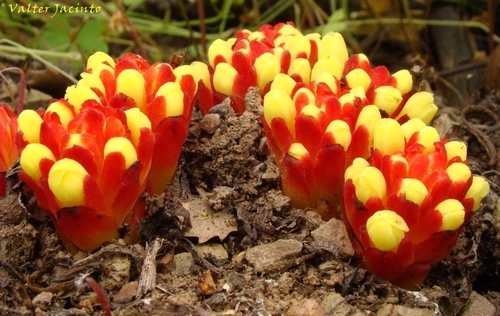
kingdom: Plantae
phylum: Tracheophyta
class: Magnoliopsida
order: Malvales
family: Cytinaceae
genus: Cytinus
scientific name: Cytinus hypocistis
